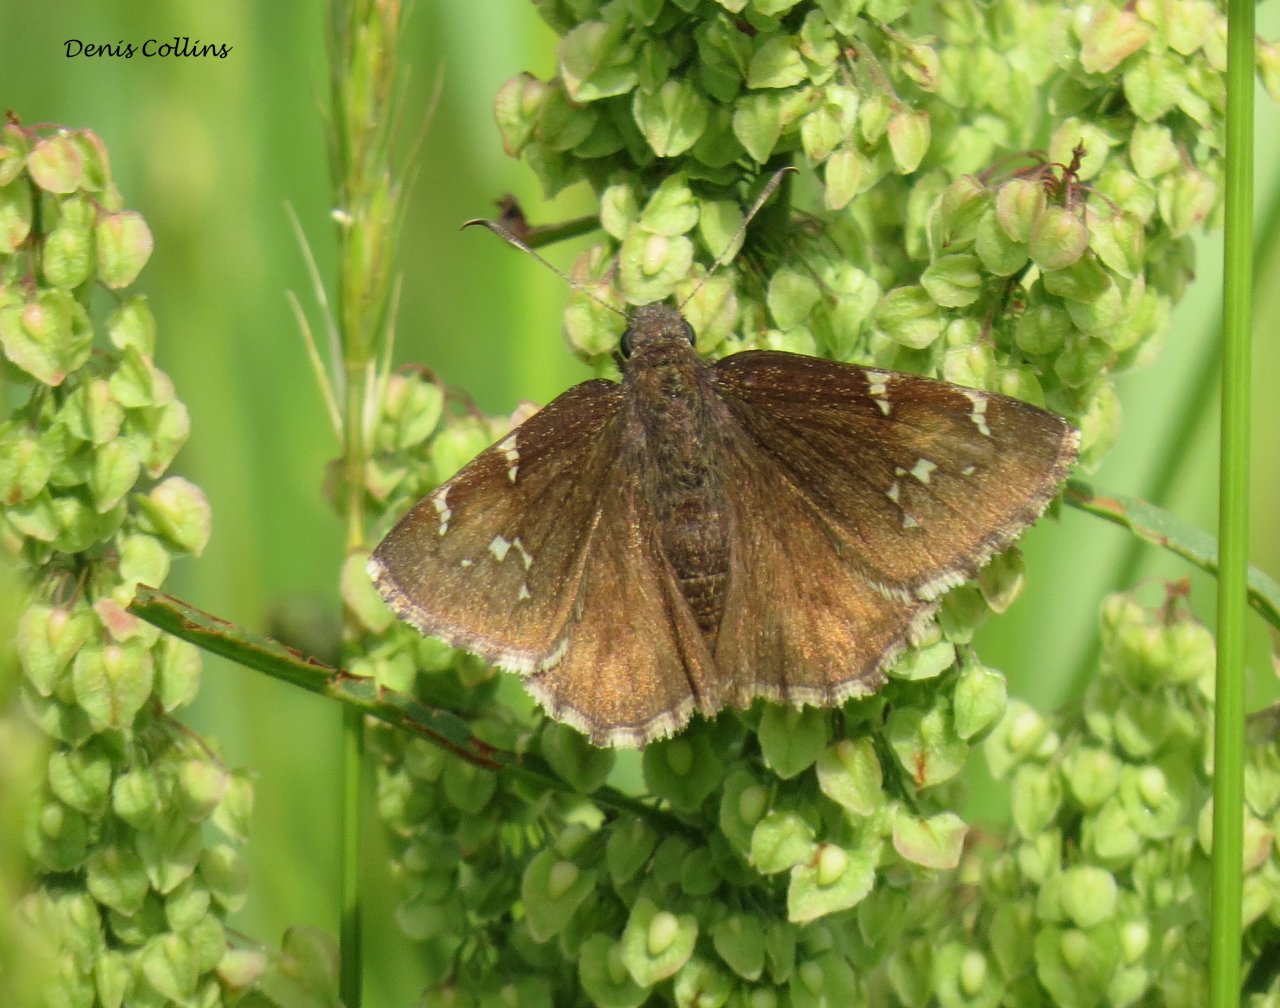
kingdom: Animalia
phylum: Arthropoda
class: Insecta
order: Lepidoptera
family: Hesperiidae
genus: Autochton
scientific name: Autochton
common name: Northern Cloudywing
